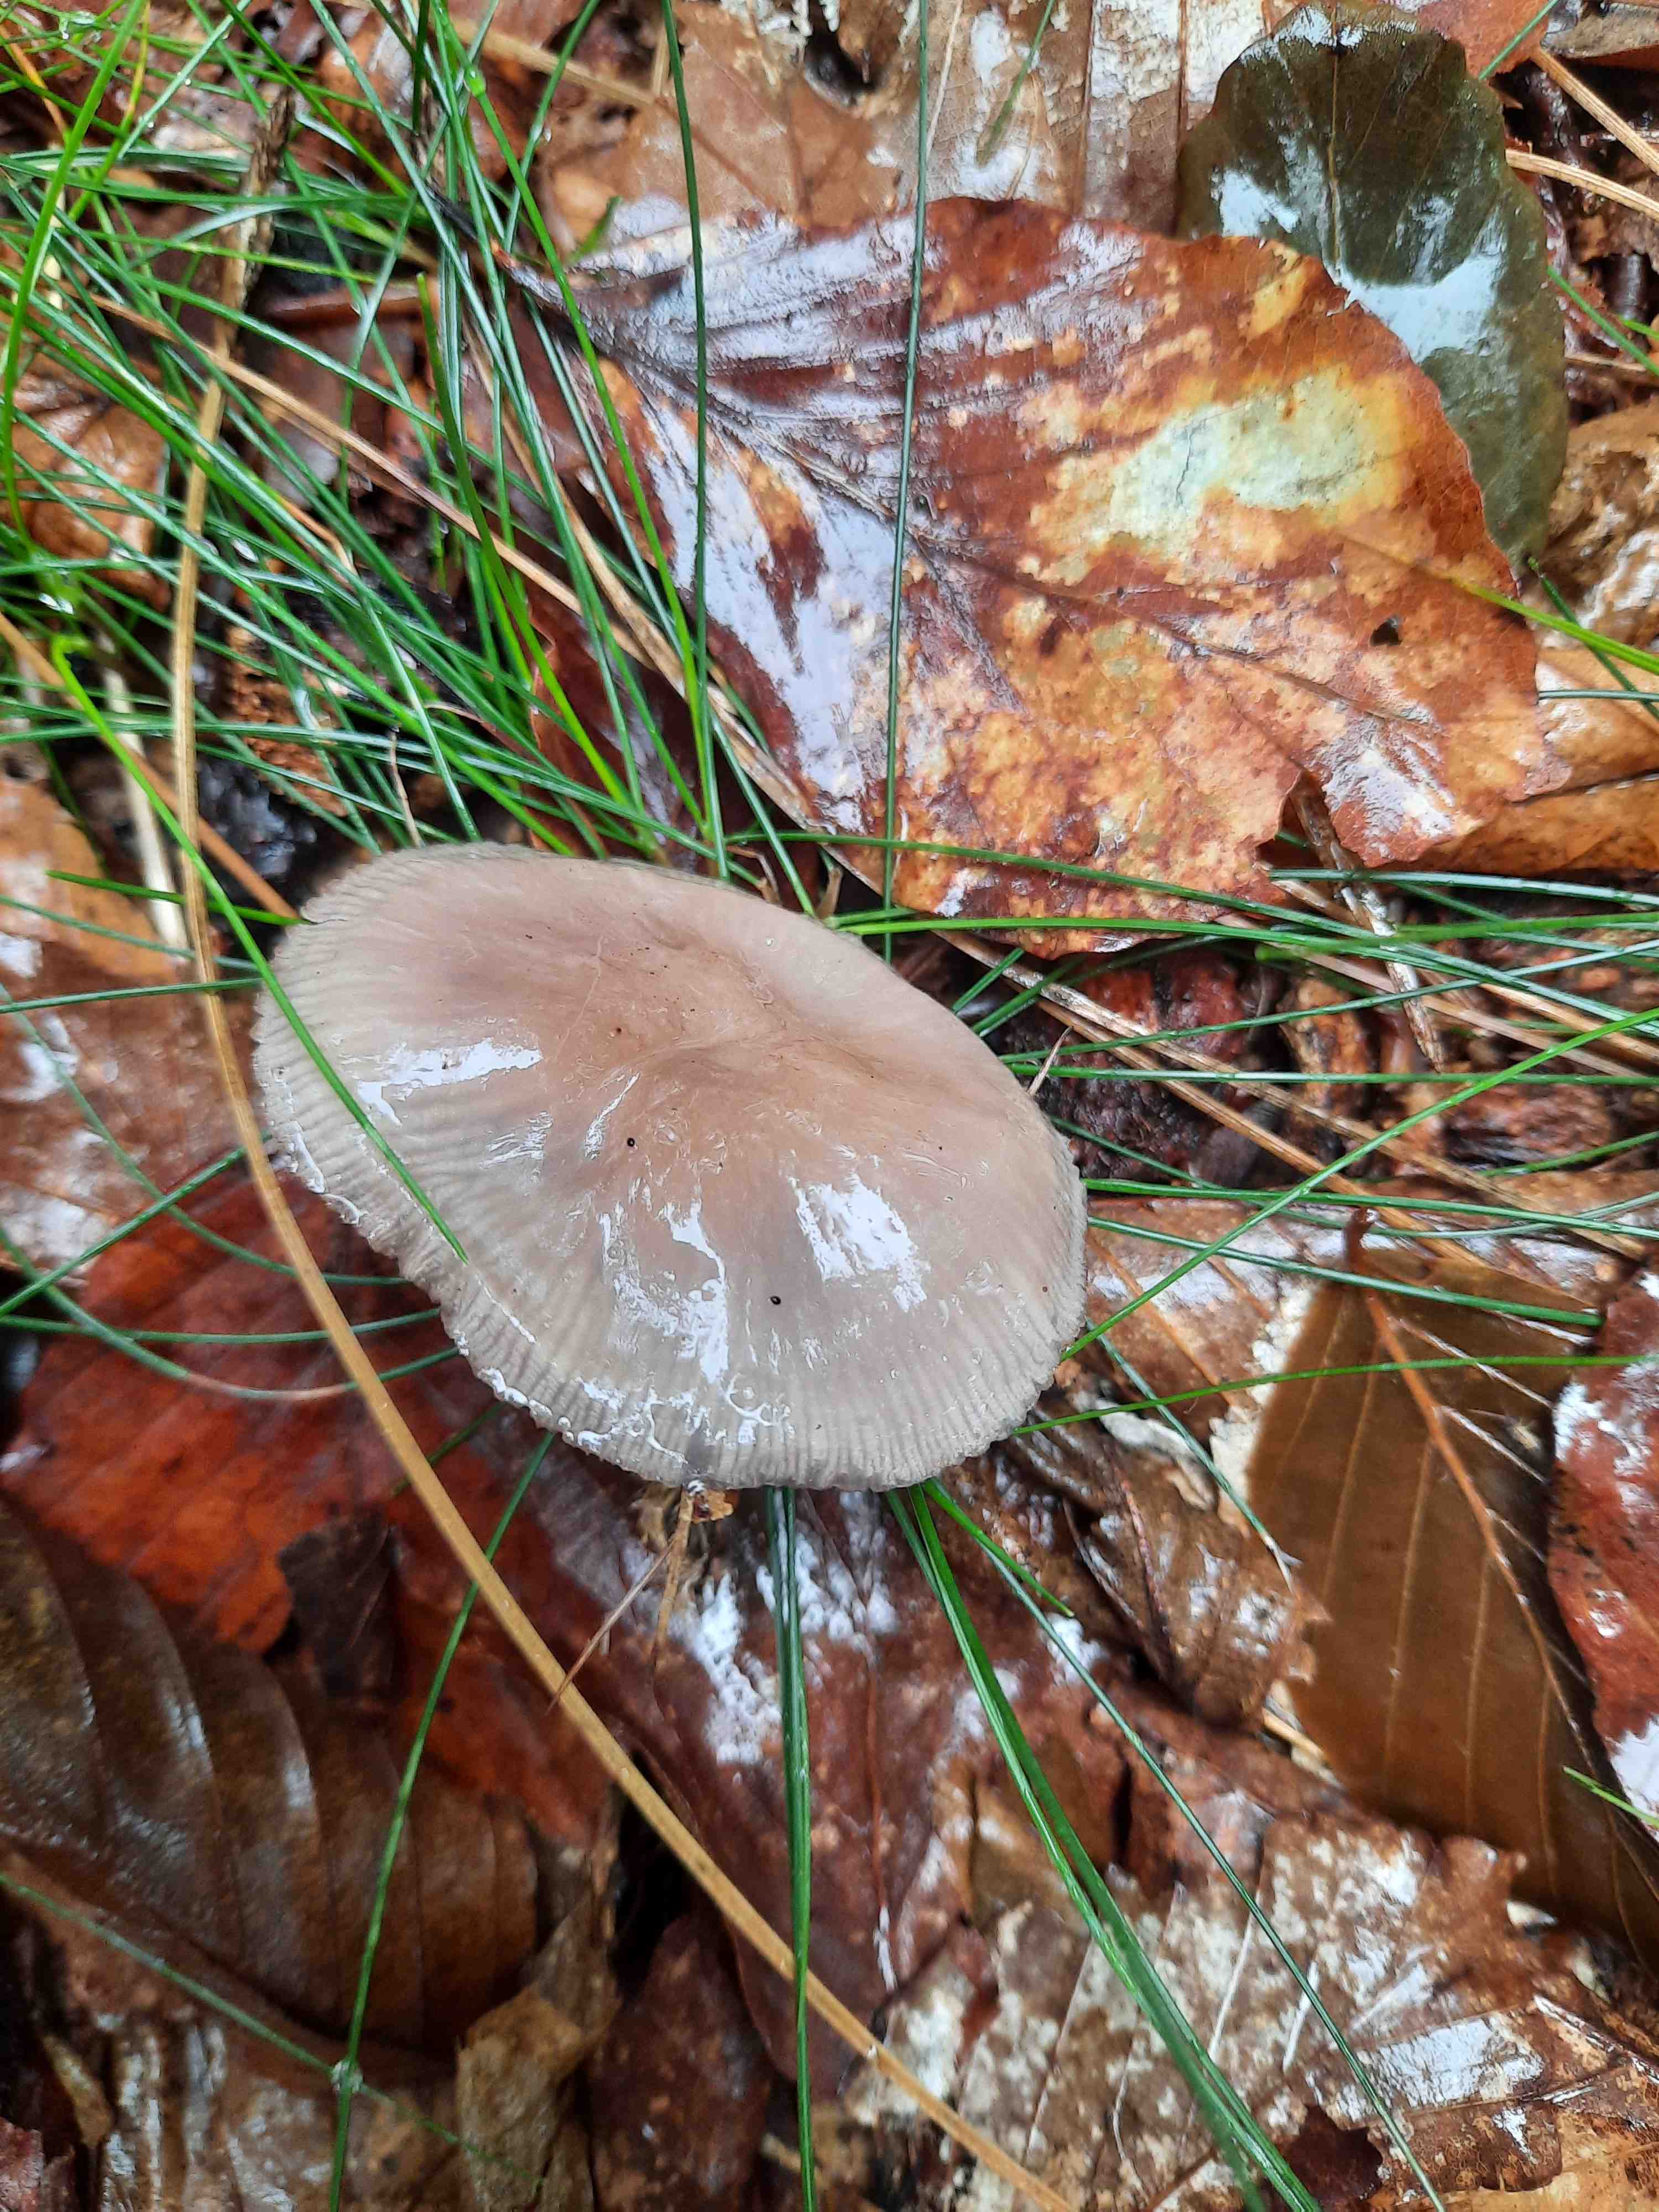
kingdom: Fungi
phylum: Basidiomycota
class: Agaricomycetes
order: Agaricales
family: Mycenaceae
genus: Mycena
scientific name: Mycena pelianthina
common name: mørkbladet huesvamp
